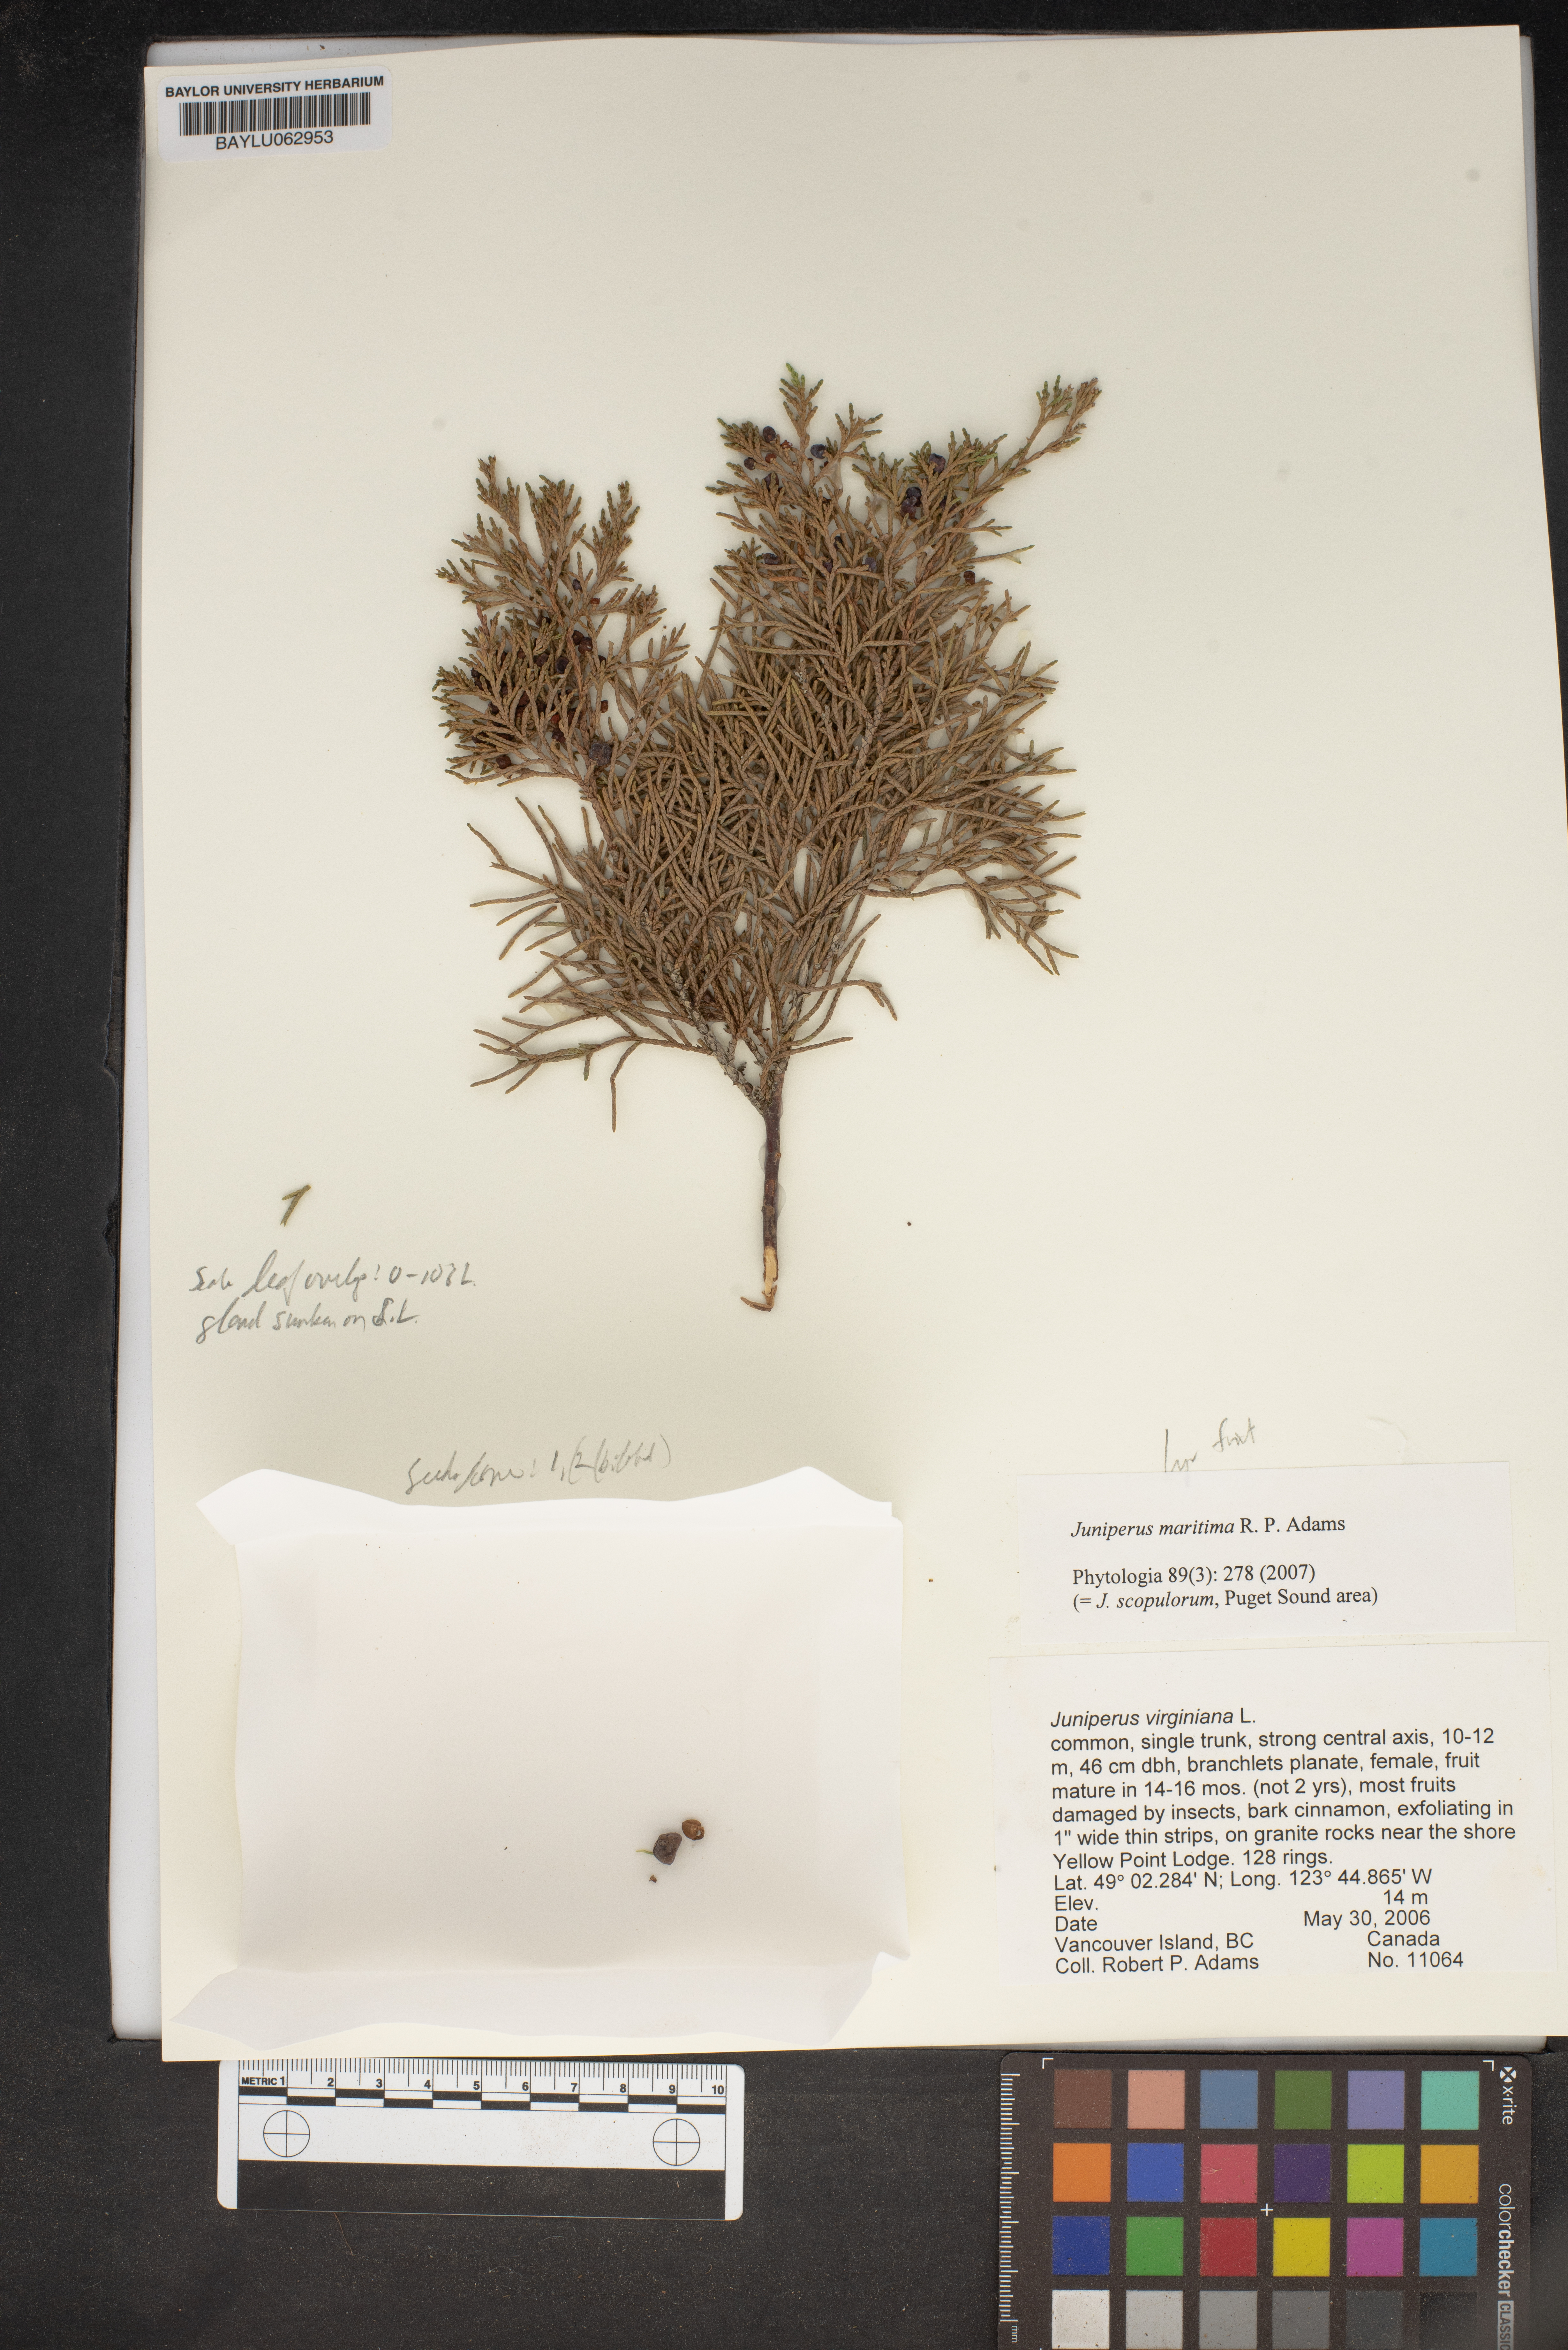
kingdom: Plantae
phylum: Tracheophyta
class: Pinopsida
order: Pinales
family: Cupressaceae
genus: Juniperus
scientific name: Juniperus scopulorum
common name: Rocky mountain juniper
